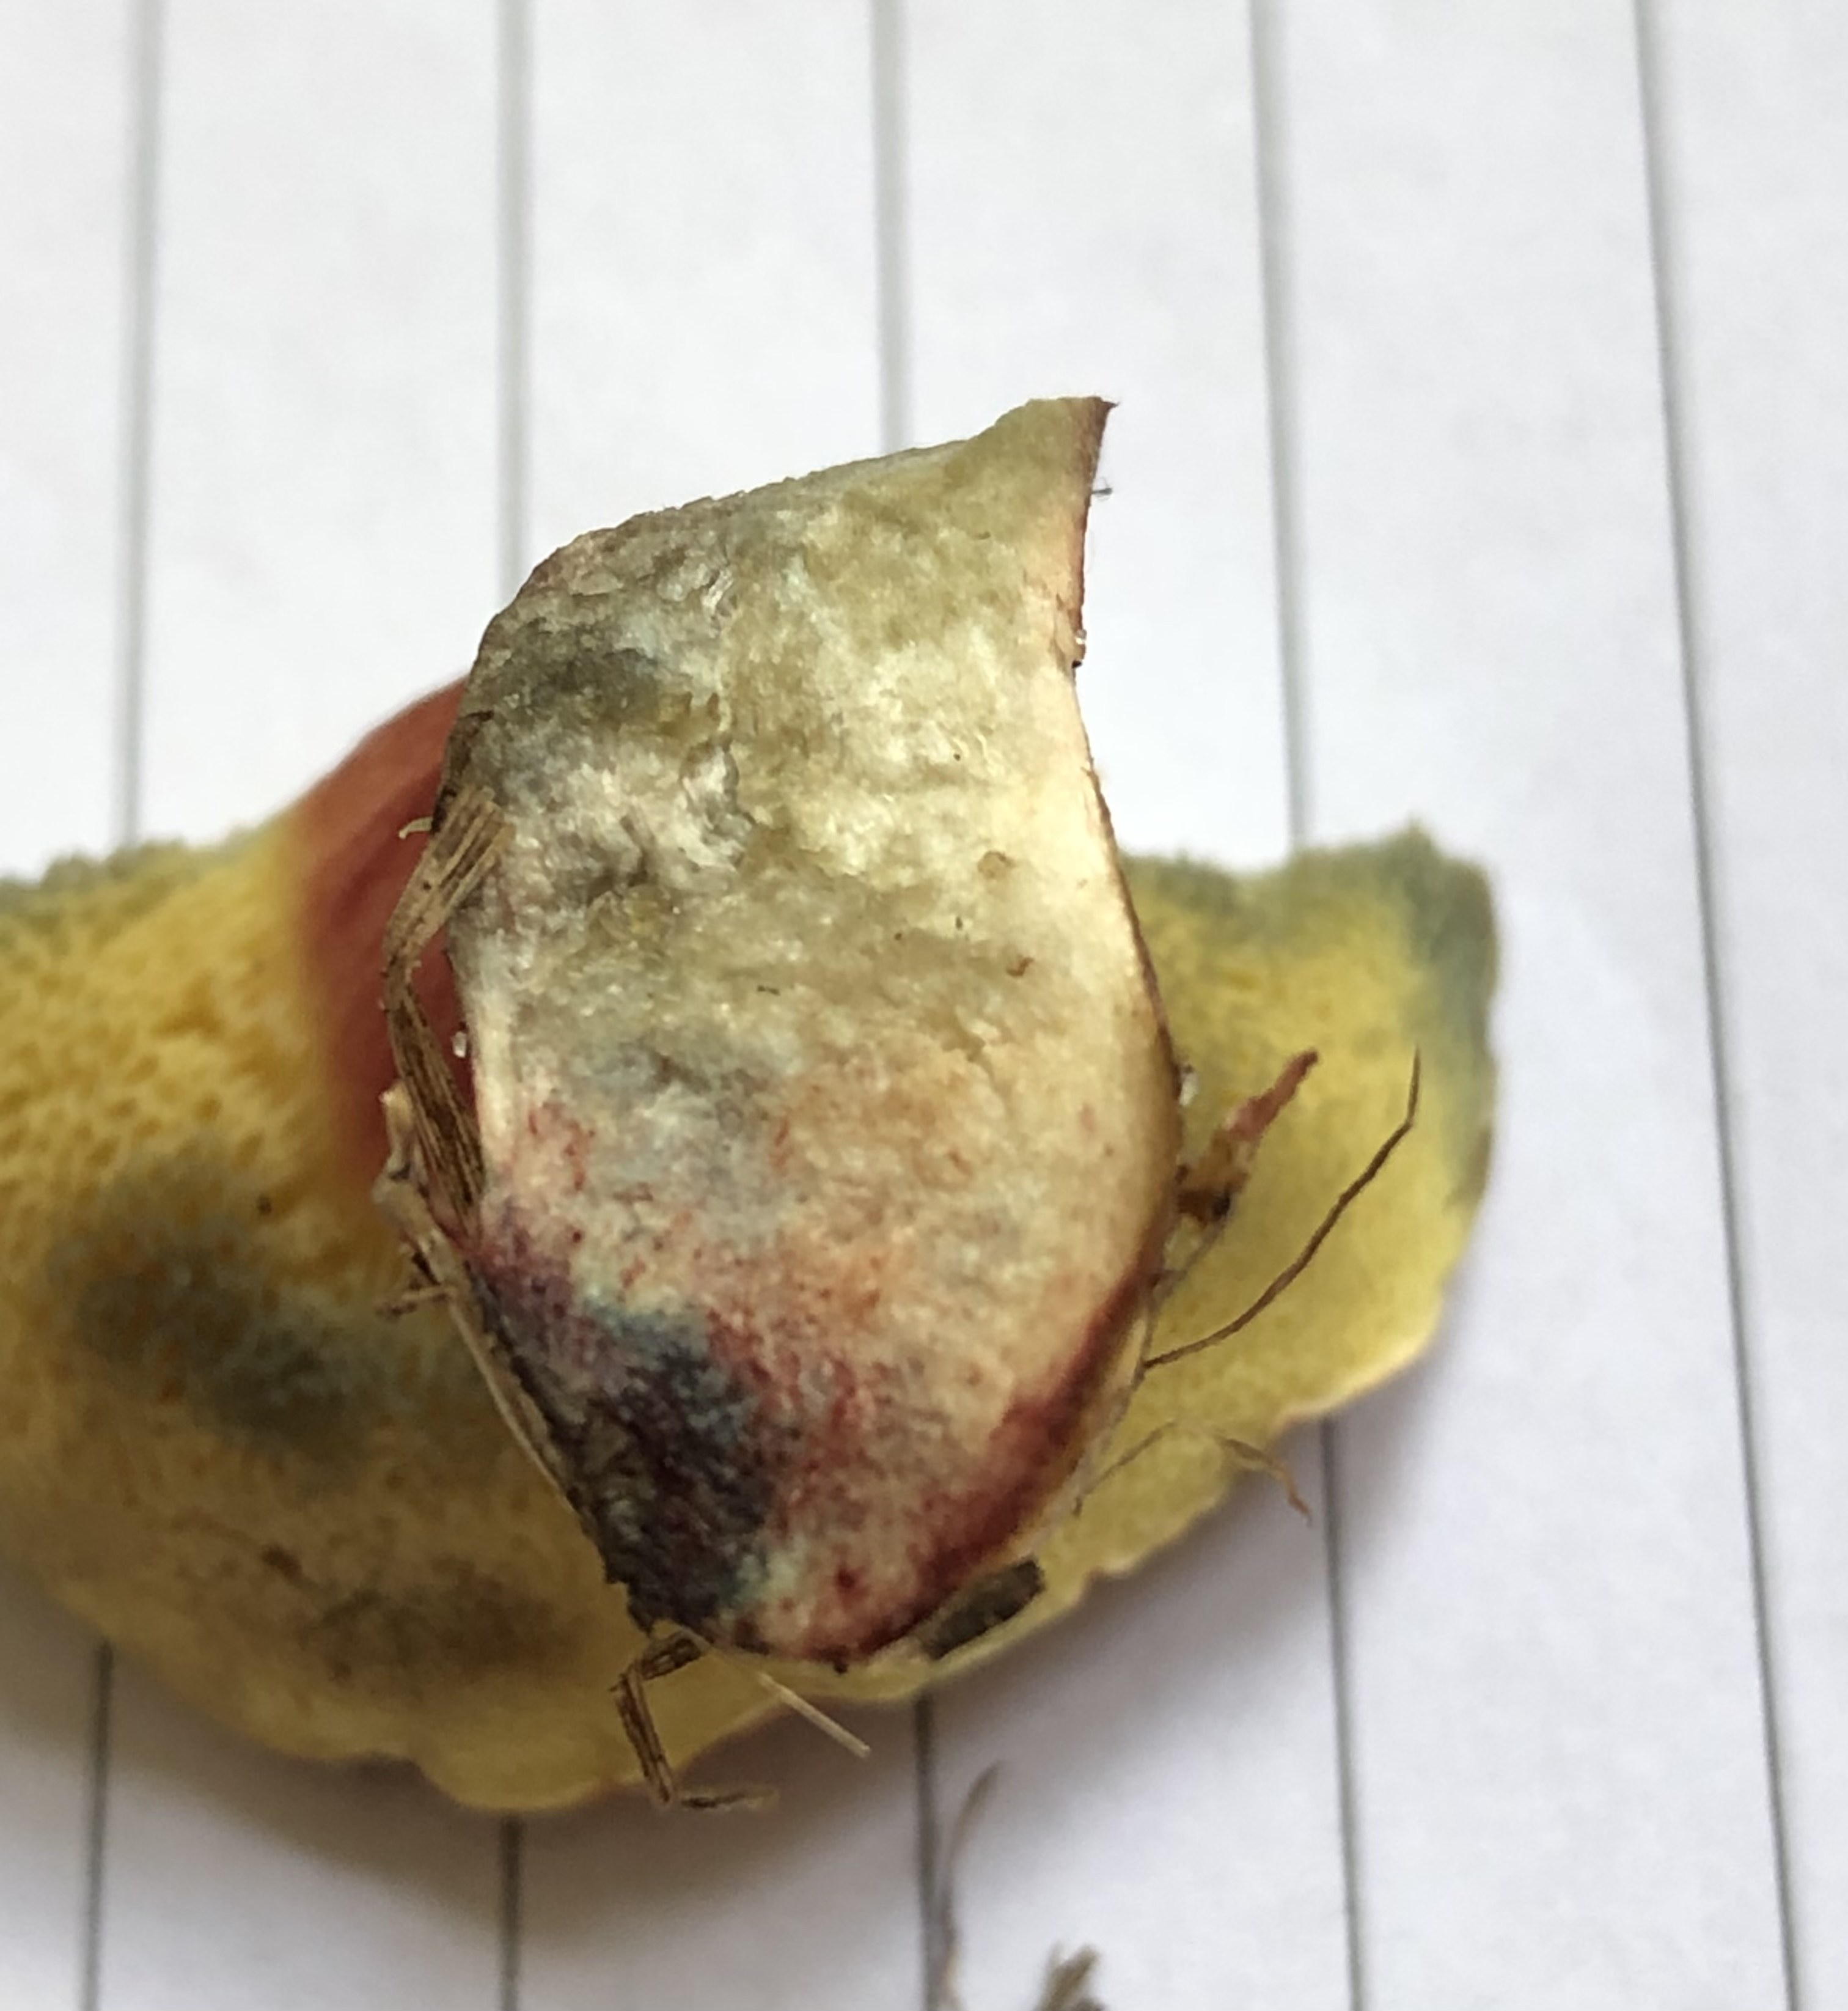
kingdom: Fungi
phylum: Basidiomycota
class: Agaricomycetes
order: Boletales
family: Boletaceae
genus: Hortiboletus
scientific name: Hortiboletus rubellus
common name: blodrød rørhat
